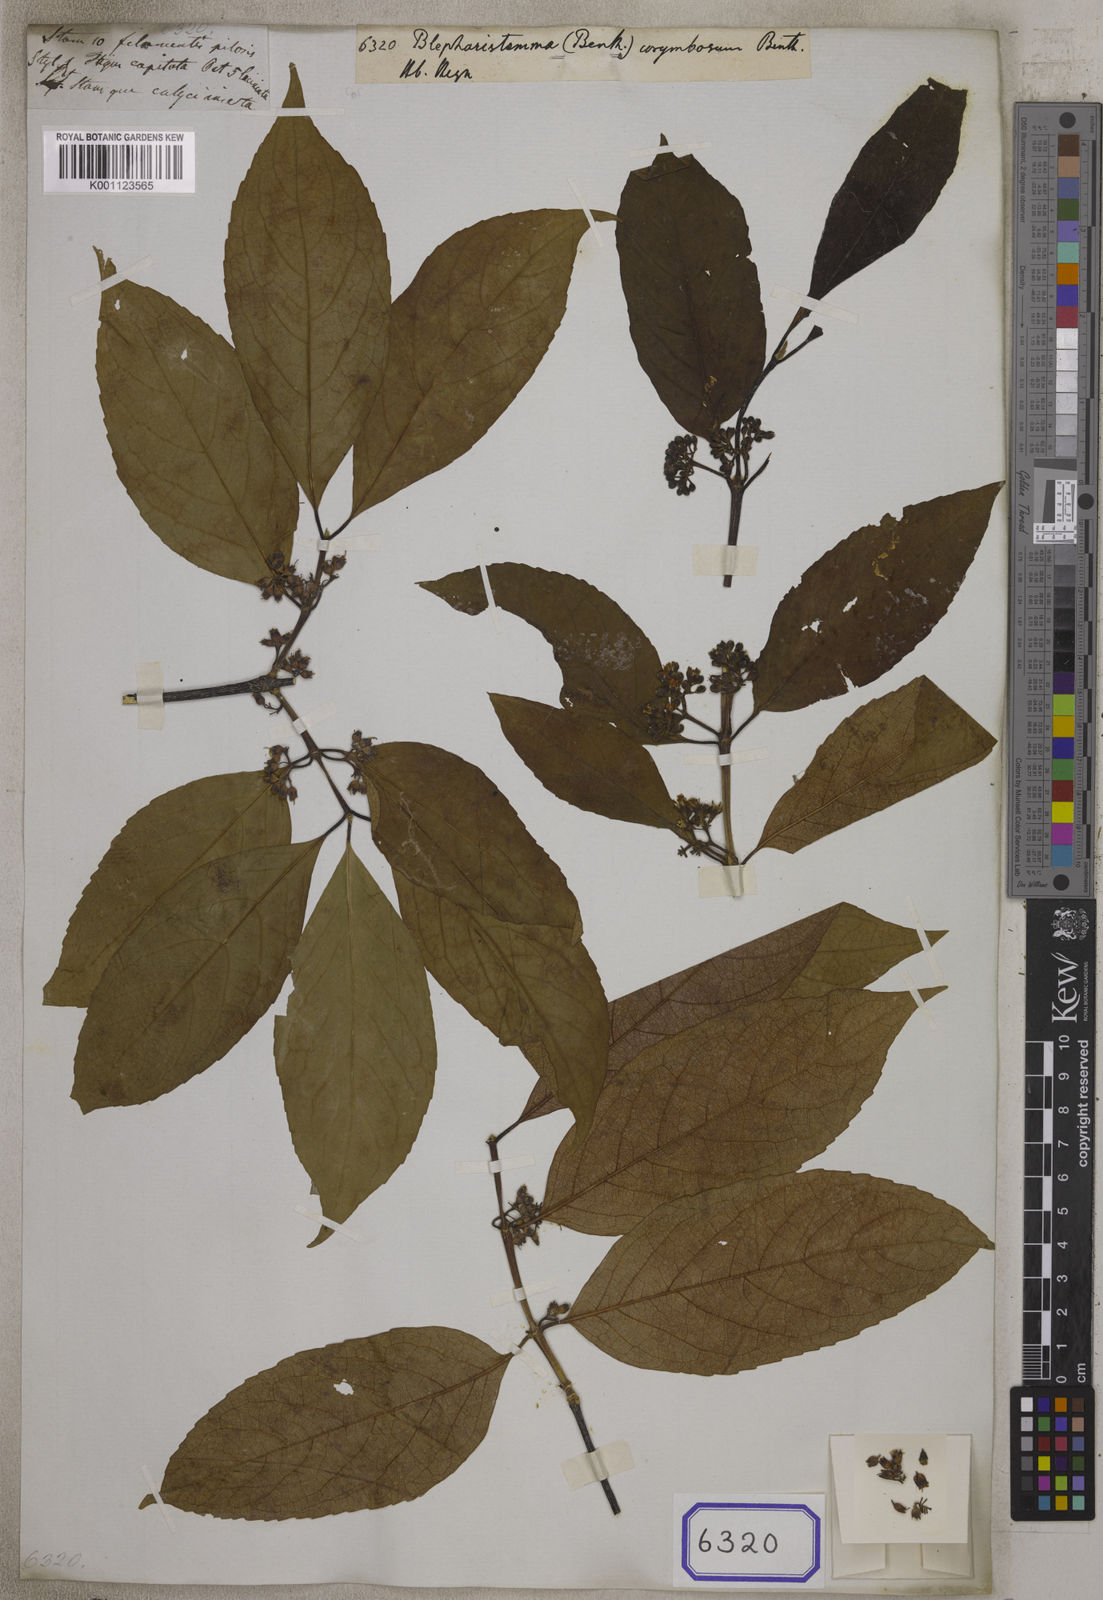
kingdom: Plantae
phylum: Tracheophyta
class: Magnoliopsida
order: Malpighiales
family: Rhizophoraceae
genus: Blepharistemma
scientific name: Blepharistemma
